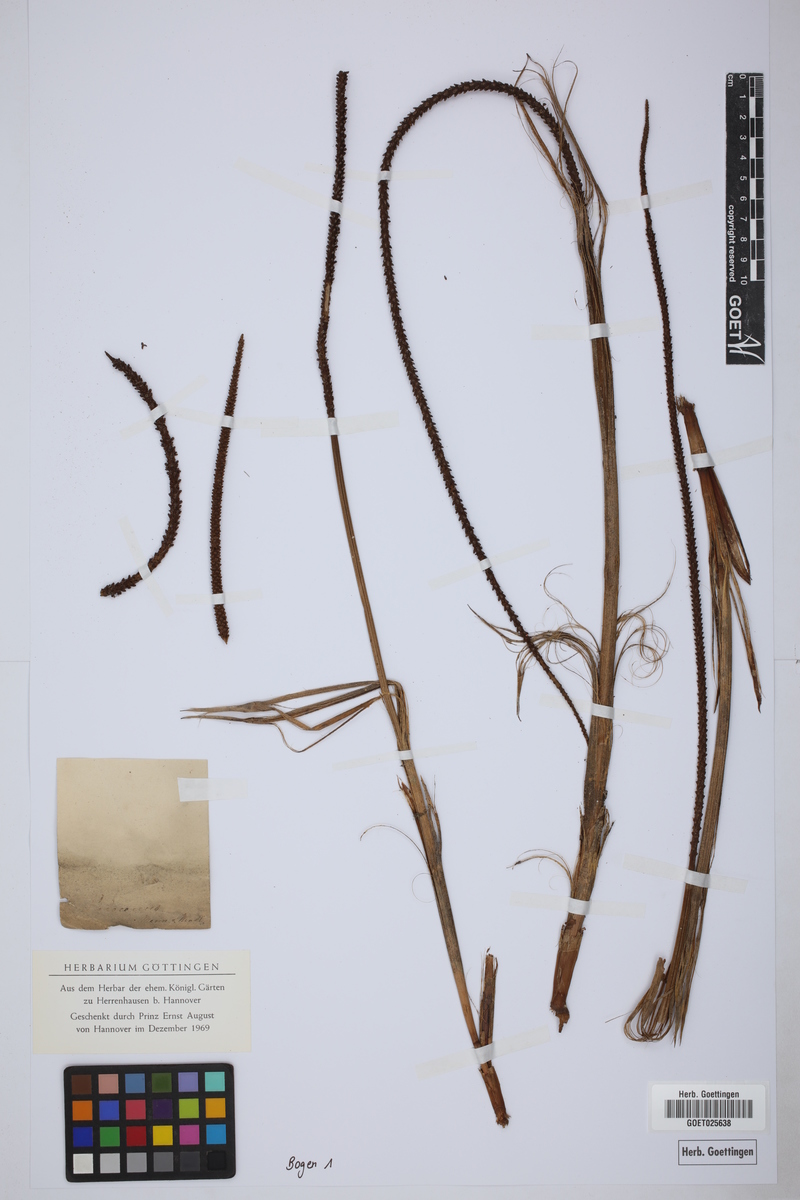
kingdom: Plantae
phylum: Tracheophyta
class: Liliopsida
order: Arecales
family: Arecaceae
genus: Hyphaene
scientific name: Hyphaene
